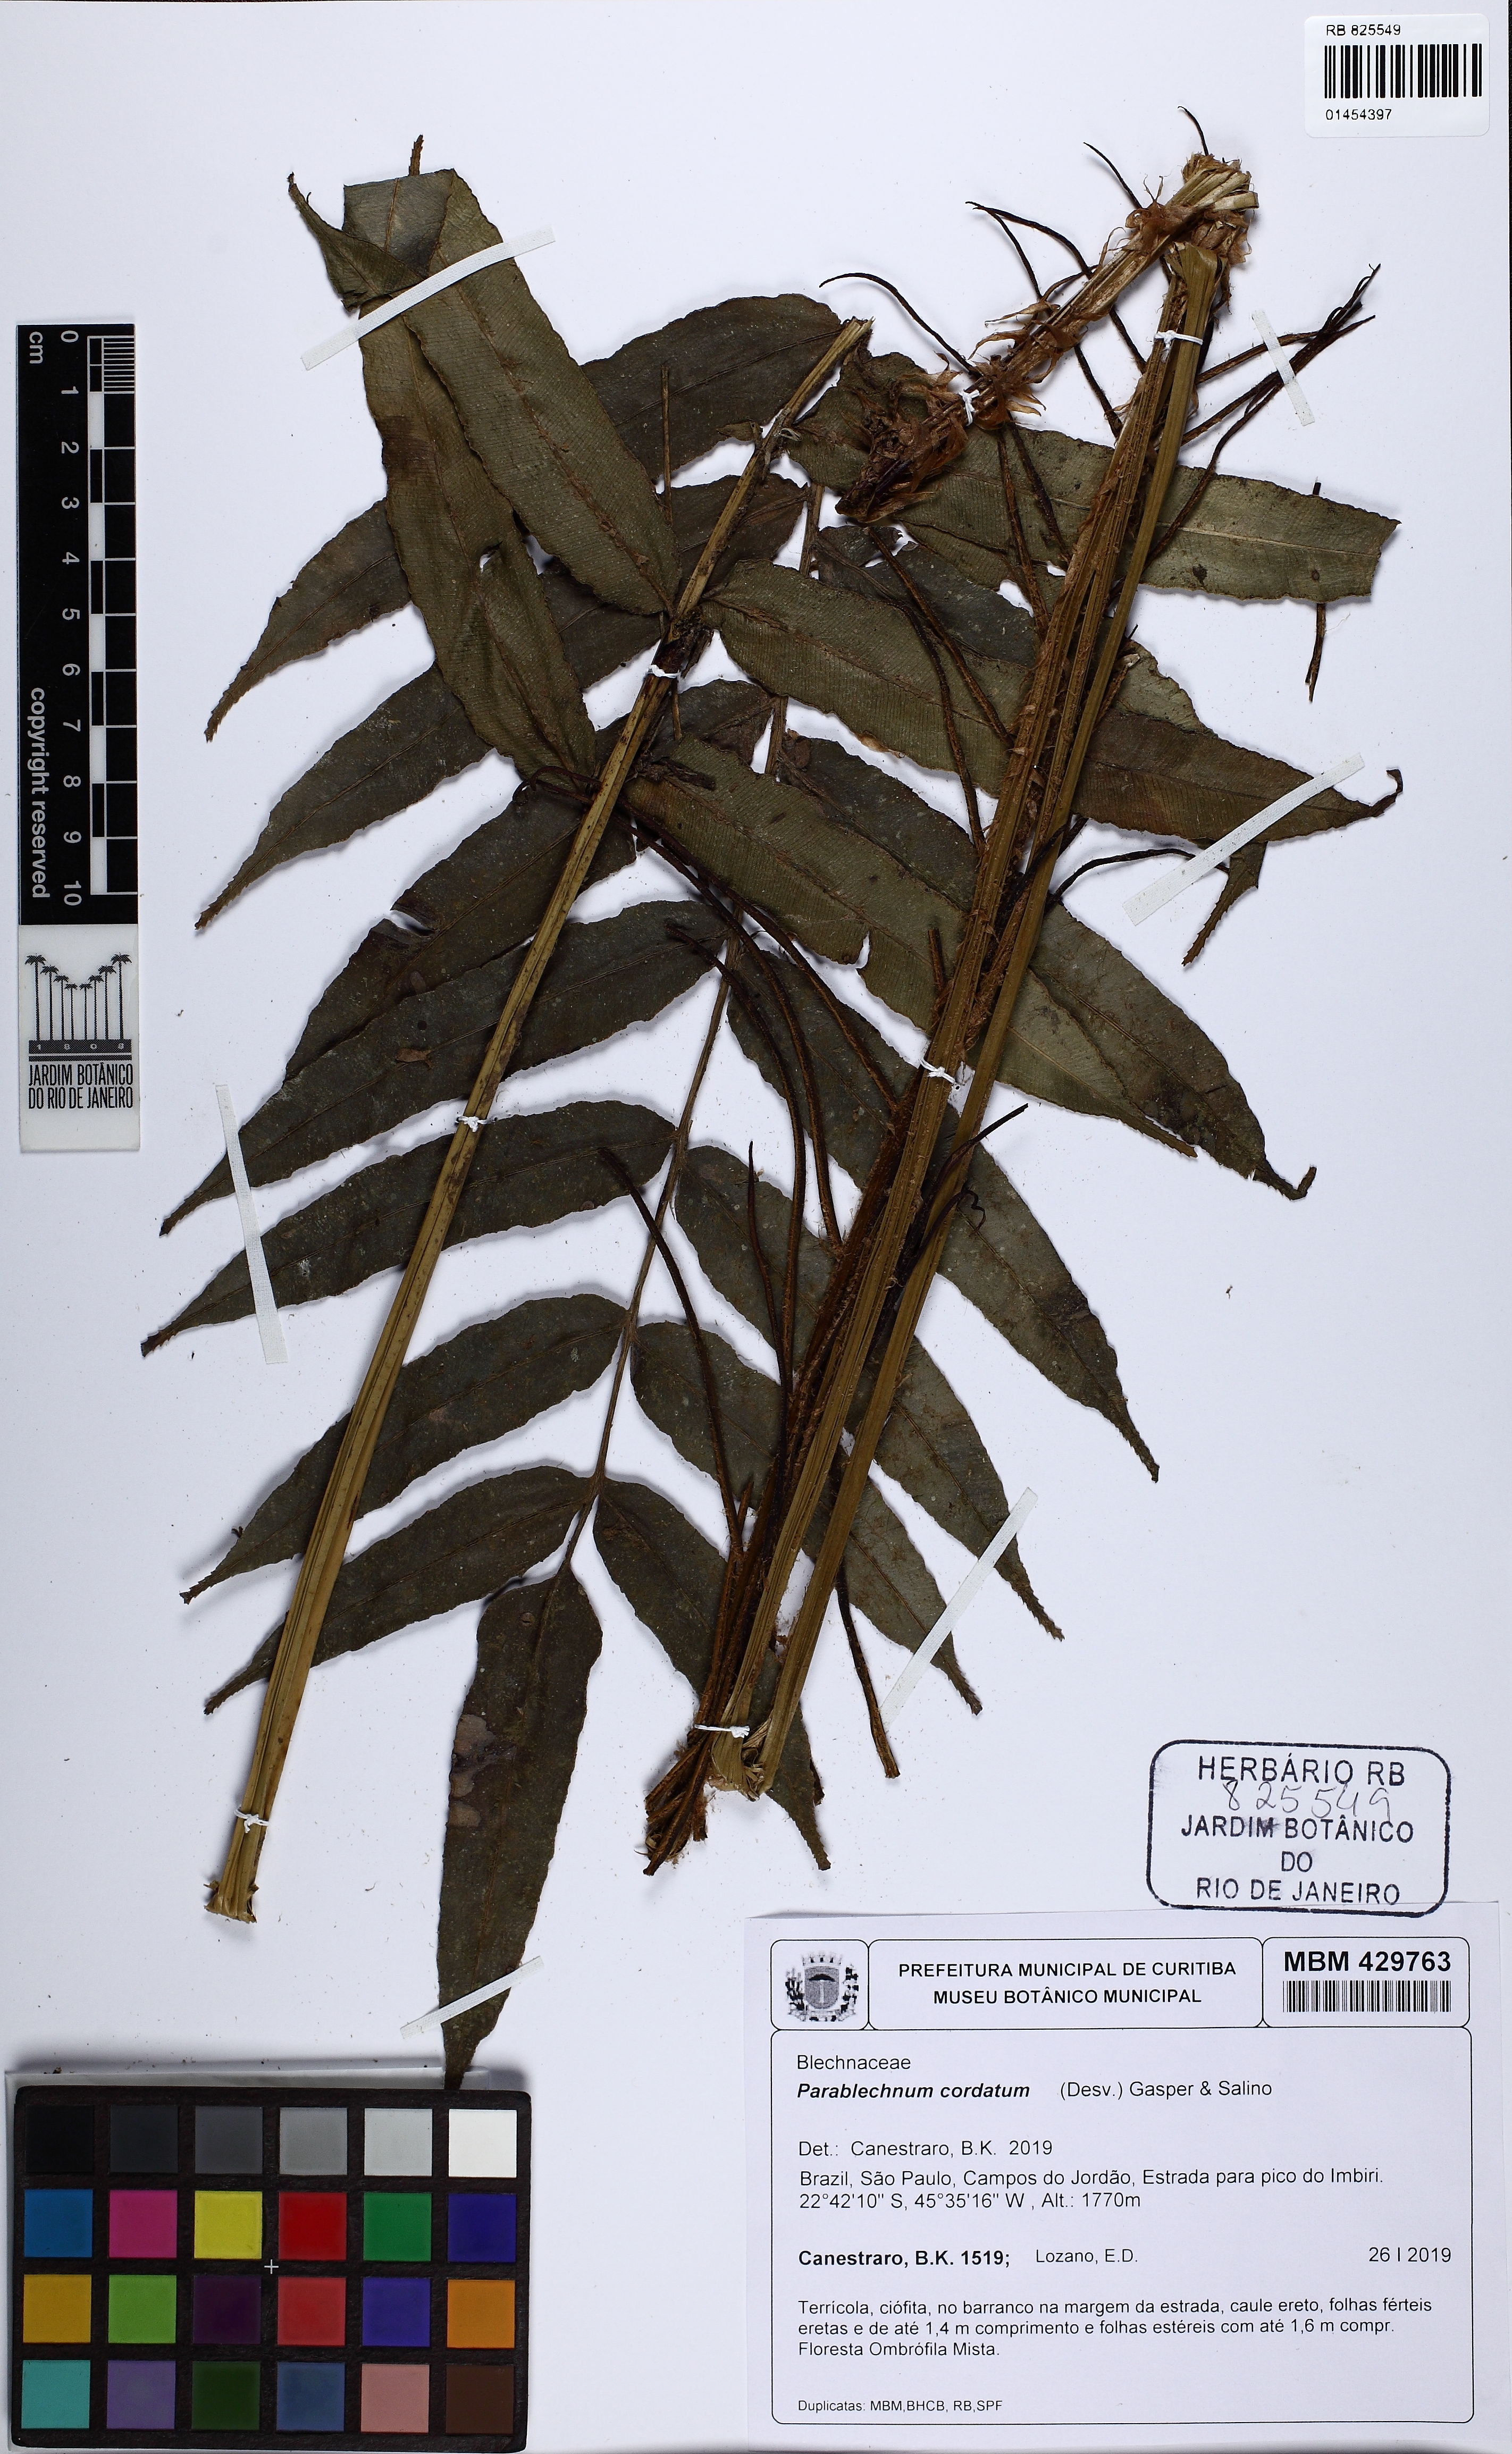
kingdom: Plantae
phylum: Tracheophyta
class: Polypodiopsida
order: Polypodiales
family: Blechnaceae
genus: Parablechnum
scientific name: Parablechnum cordatum
